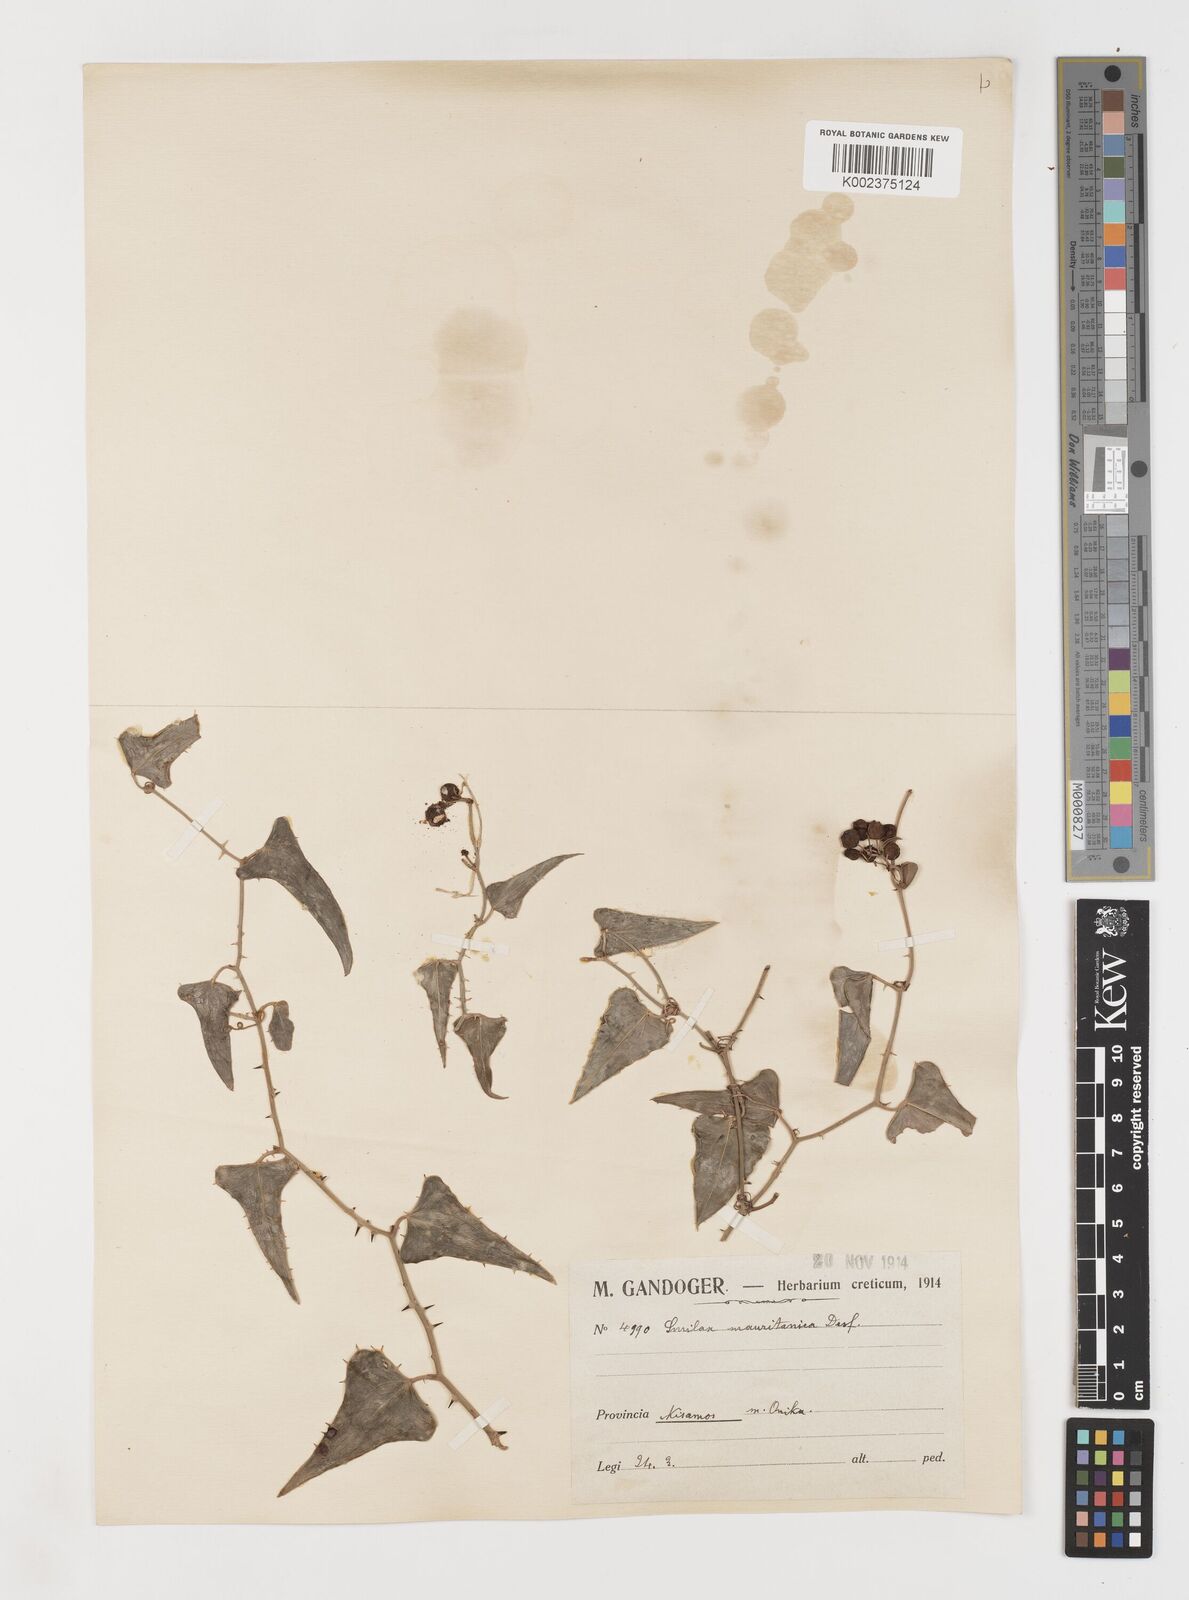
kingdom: Plantae
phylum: Tracheophyta
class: Liliopsida
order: Liliales
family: Smilacaceae
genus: Smilax
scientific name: Smilax aspera
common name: Common smilax
